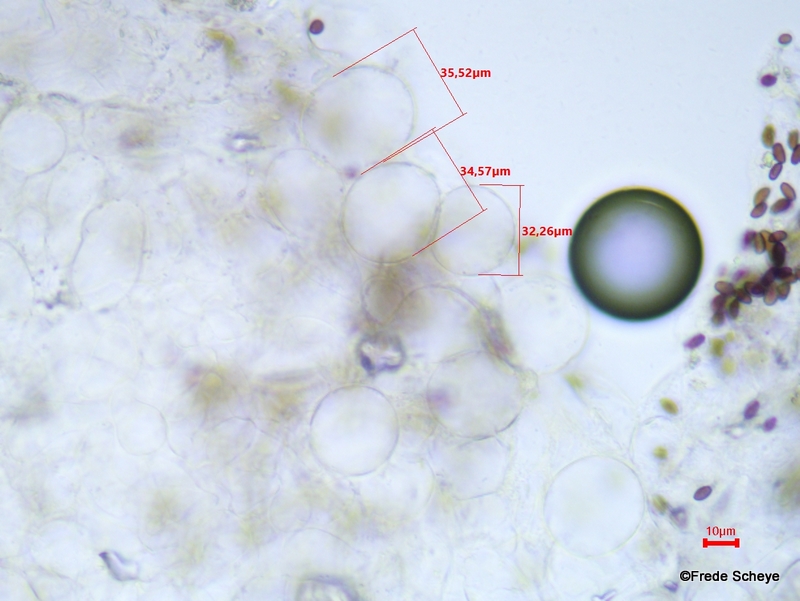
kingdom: Fungi
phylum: Basidiomycota
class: Agaricomycetes
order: Agaricales
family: Psathyrellaceae
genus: Coprinellus
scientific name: Coprinellus disseminatus
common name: bredsået blækhat
